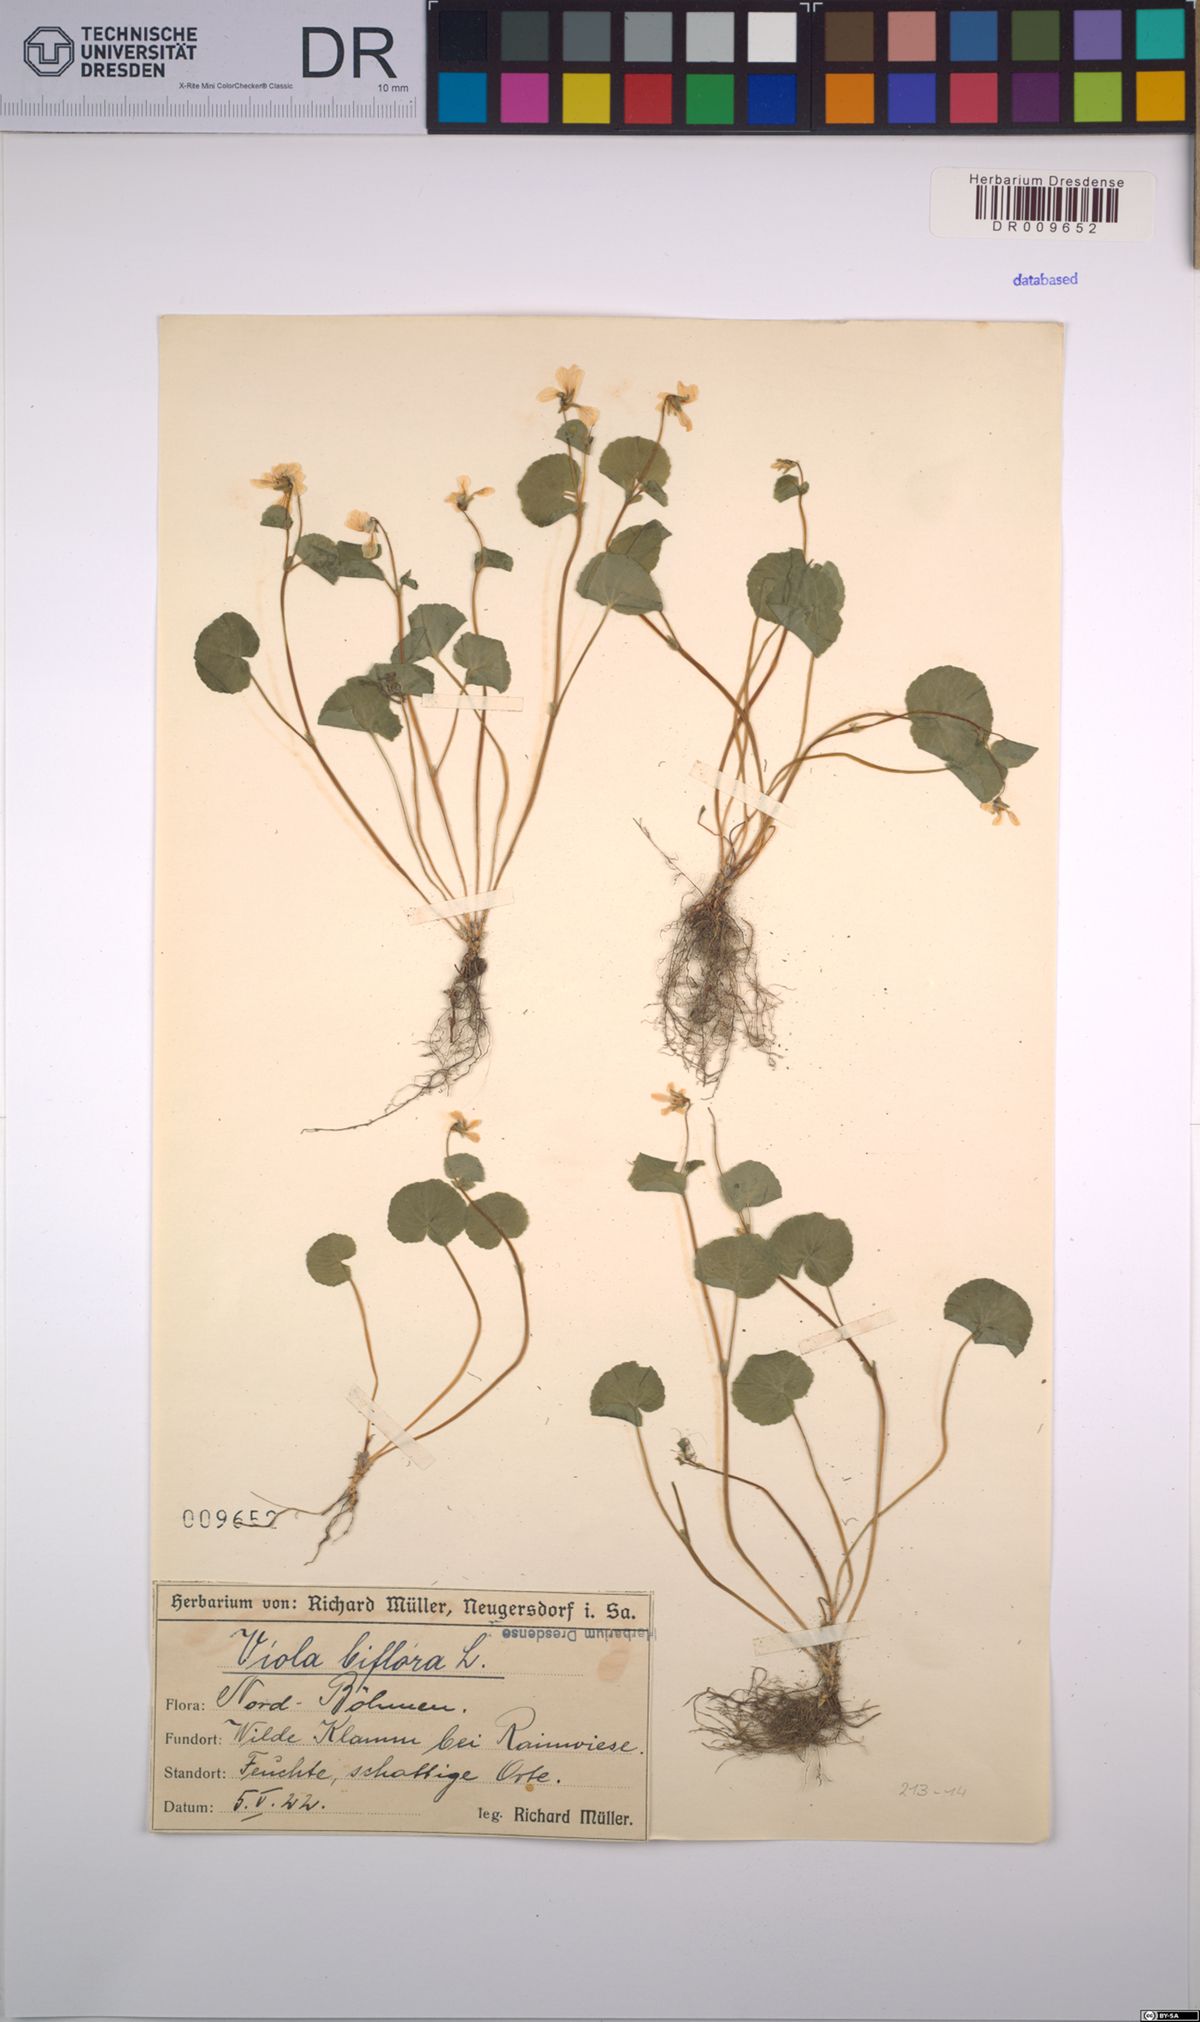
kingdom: Plantae
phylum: Tracheophyta
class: Magnoliopsida
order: Malpighiales
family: Violaceae
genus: Viola
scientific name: Viola biflora
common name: Alpine yellow violet
